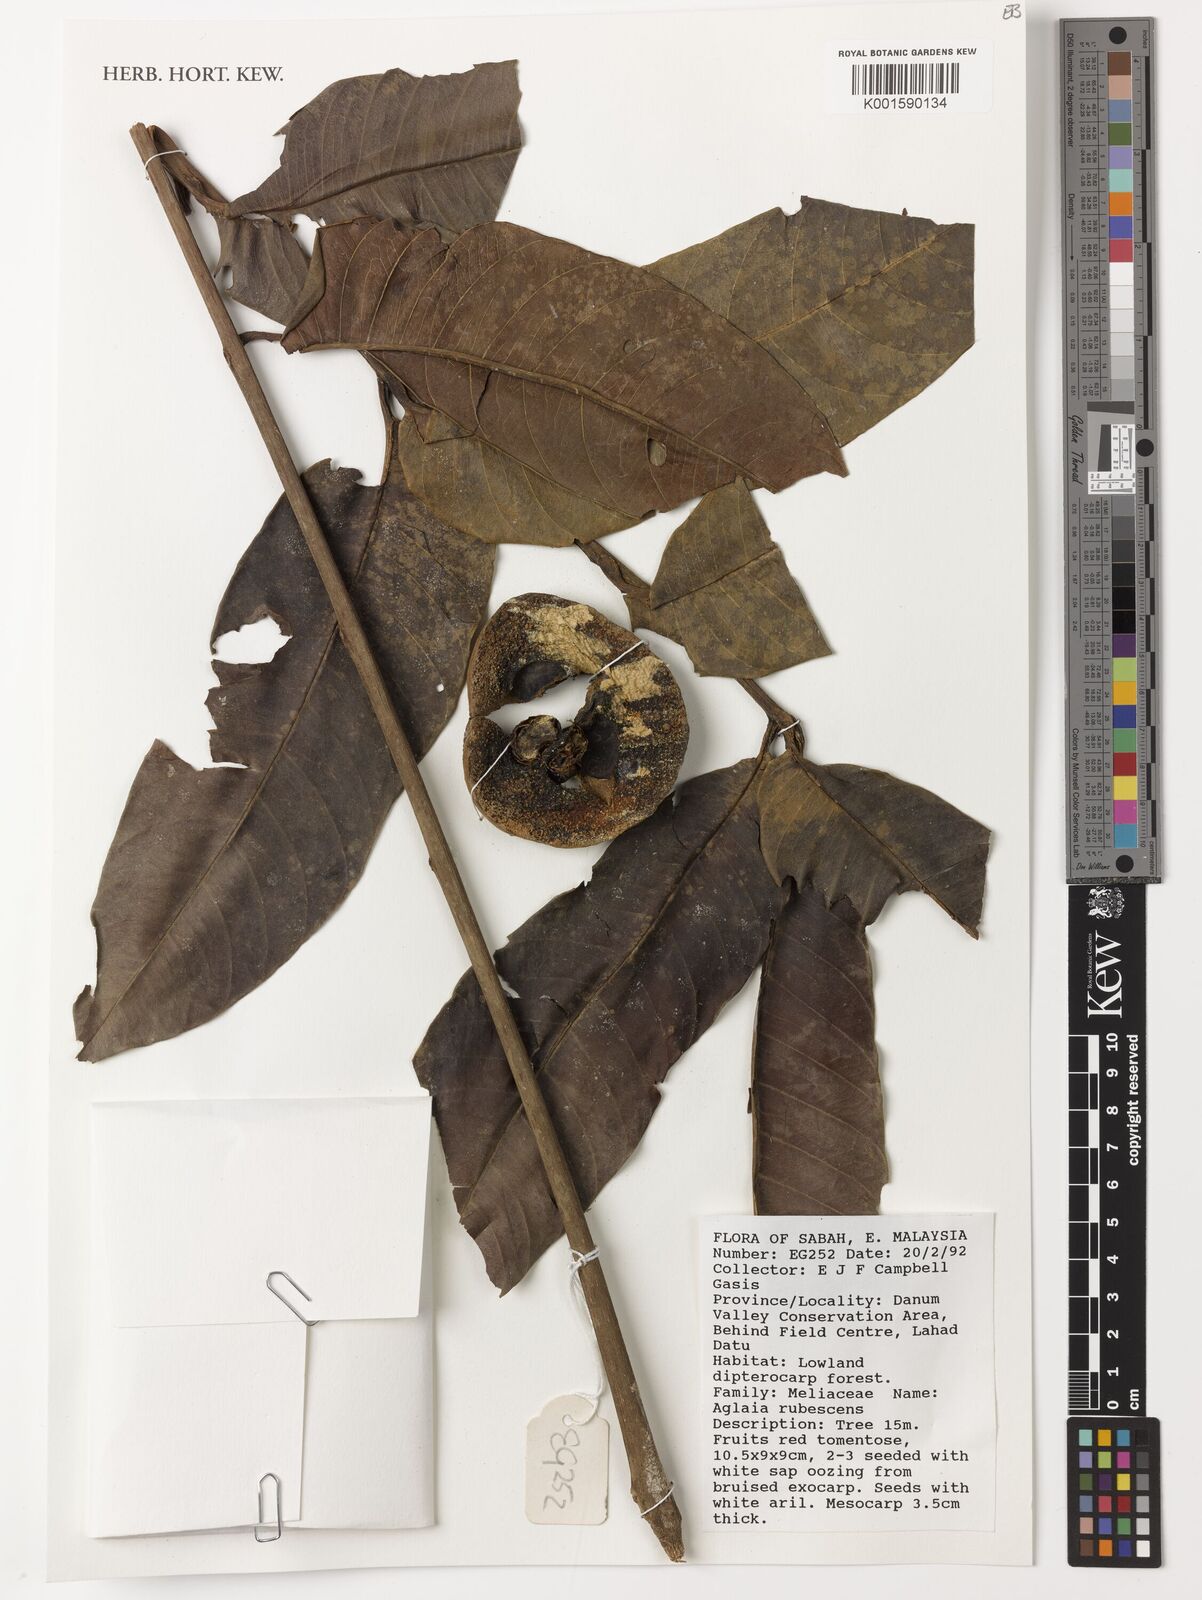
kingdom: Plantae
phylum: Tracheophyta
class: Magnoliopsida
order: Sapindales
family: Meliaceae
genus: Aglaia
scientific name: Aglaia macrocarpa
